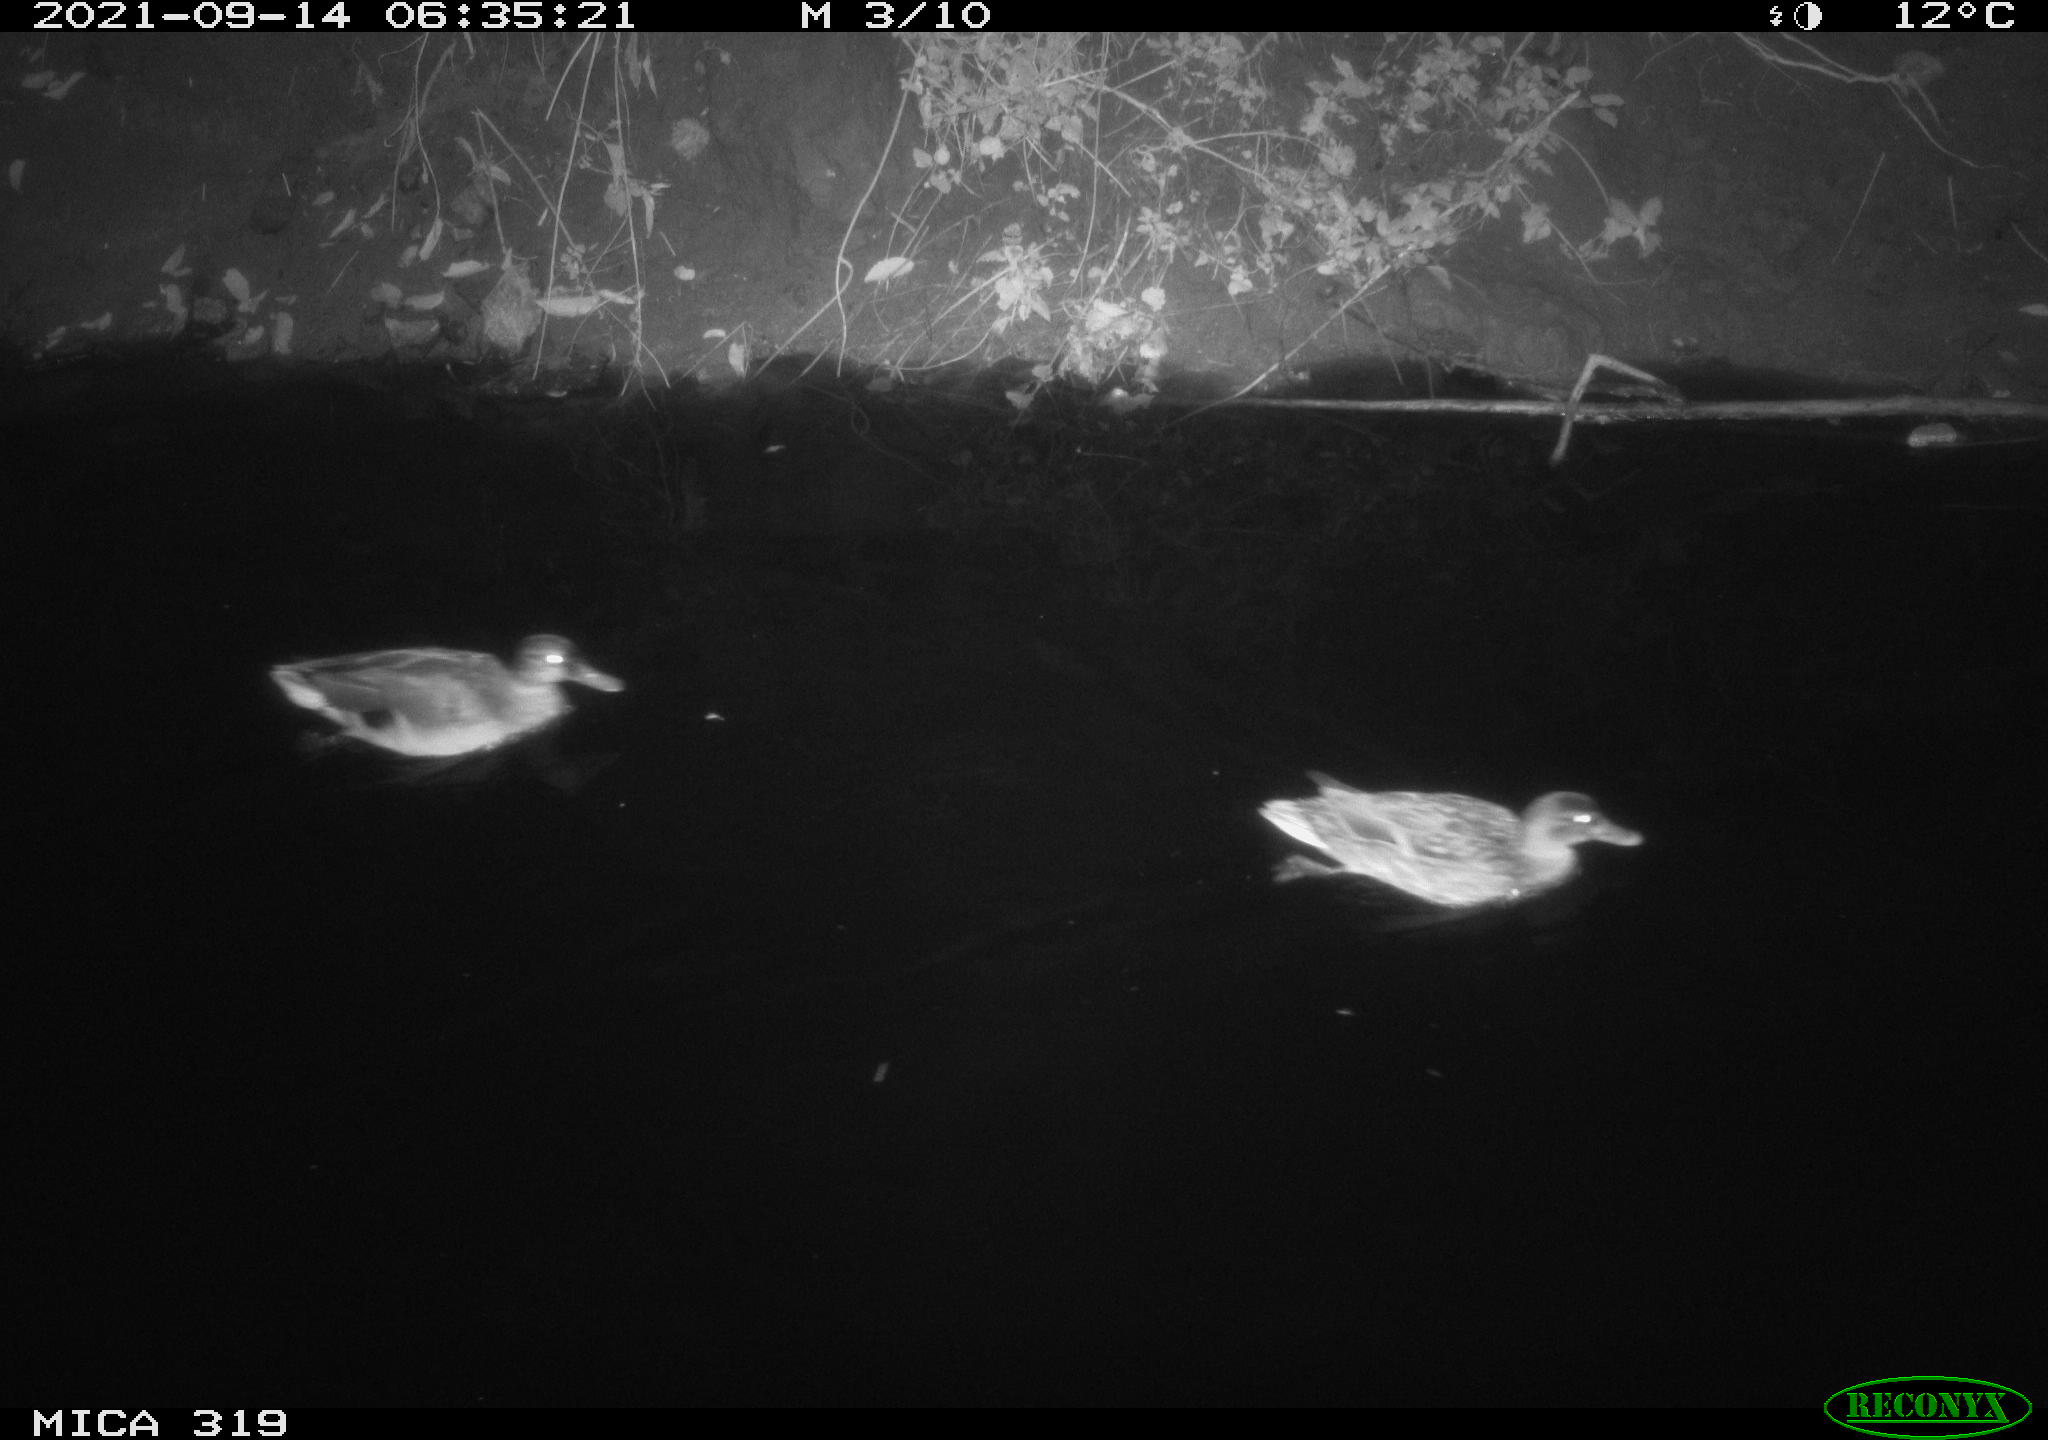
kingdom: Animalia
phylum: Chordata
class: Aves
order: Anseriformes
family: Anatidae
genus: Anas
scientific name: Anas platyrhynchos
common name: Mallard
